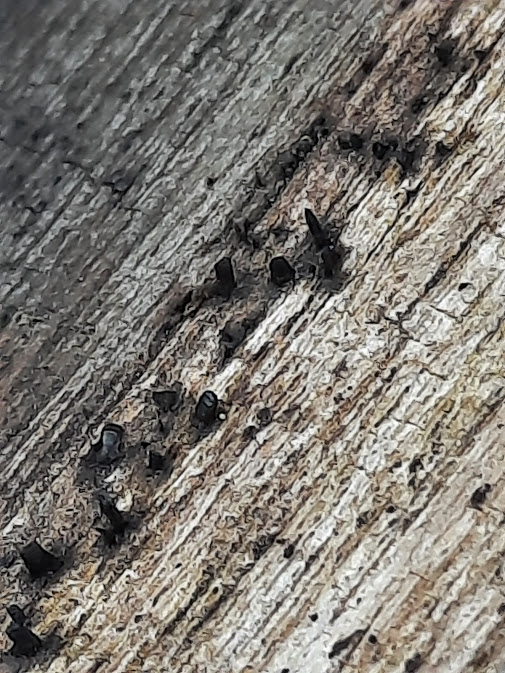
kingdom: Fungi
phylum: Ascomycota
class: Eurotiomycetes
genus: Glyphium
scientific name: Glyphium elatum
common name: kuløkse
